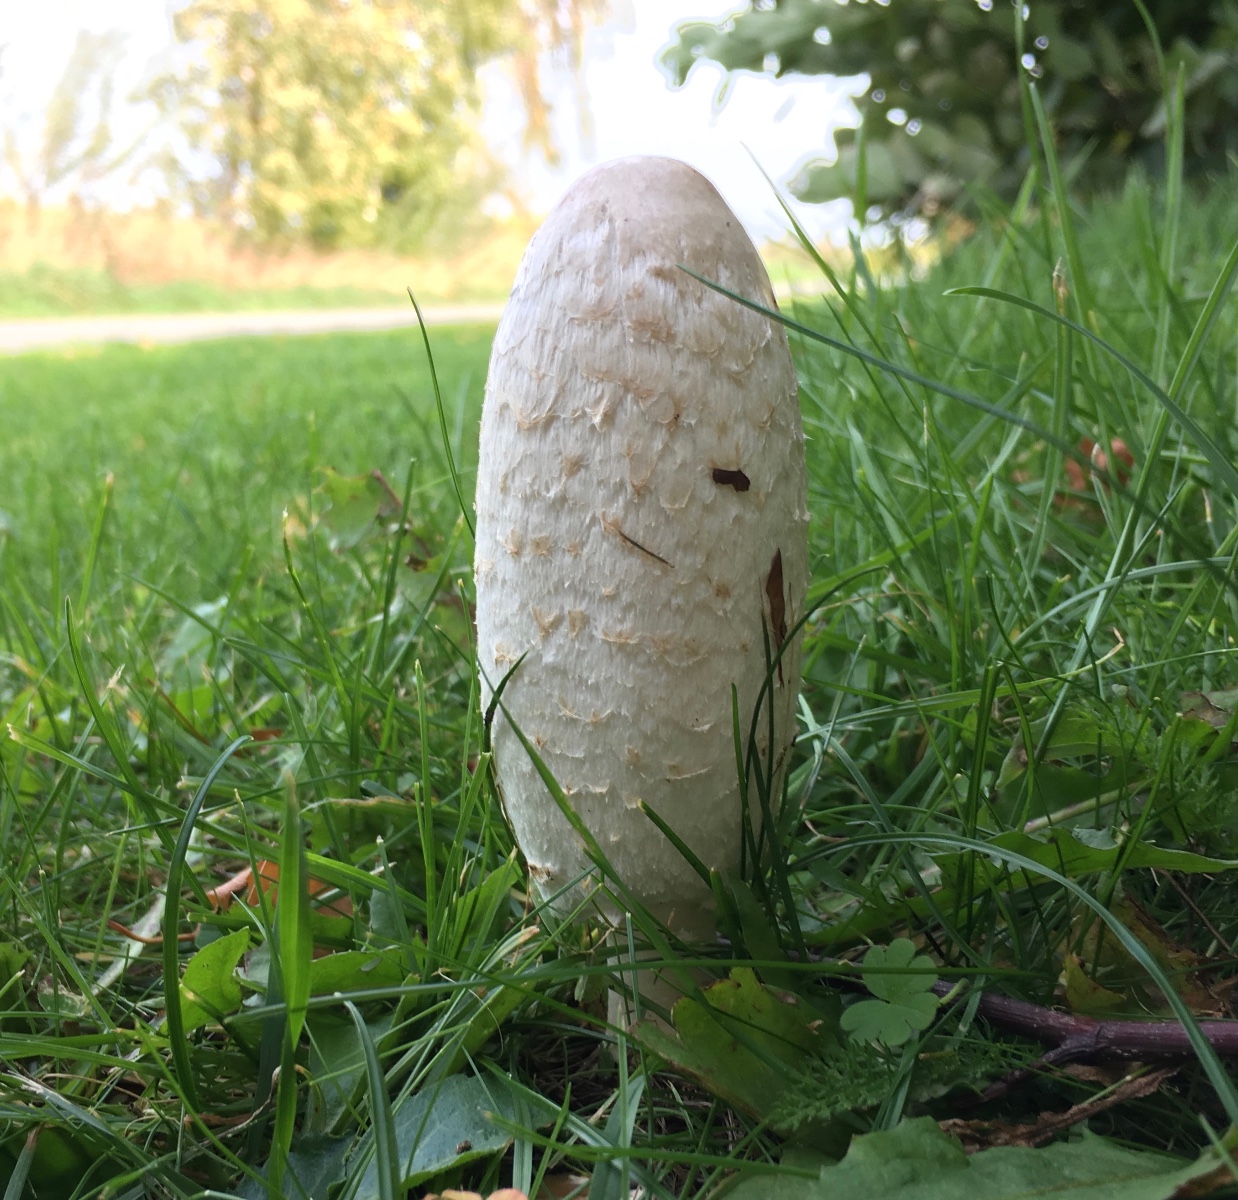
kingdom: Fungi
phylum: Basidiomycota
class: Agaricomycetes
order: Agaricales
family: Agaricaceae
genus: Coprinus
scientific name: Coprinus comatus
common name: stor parykhat
